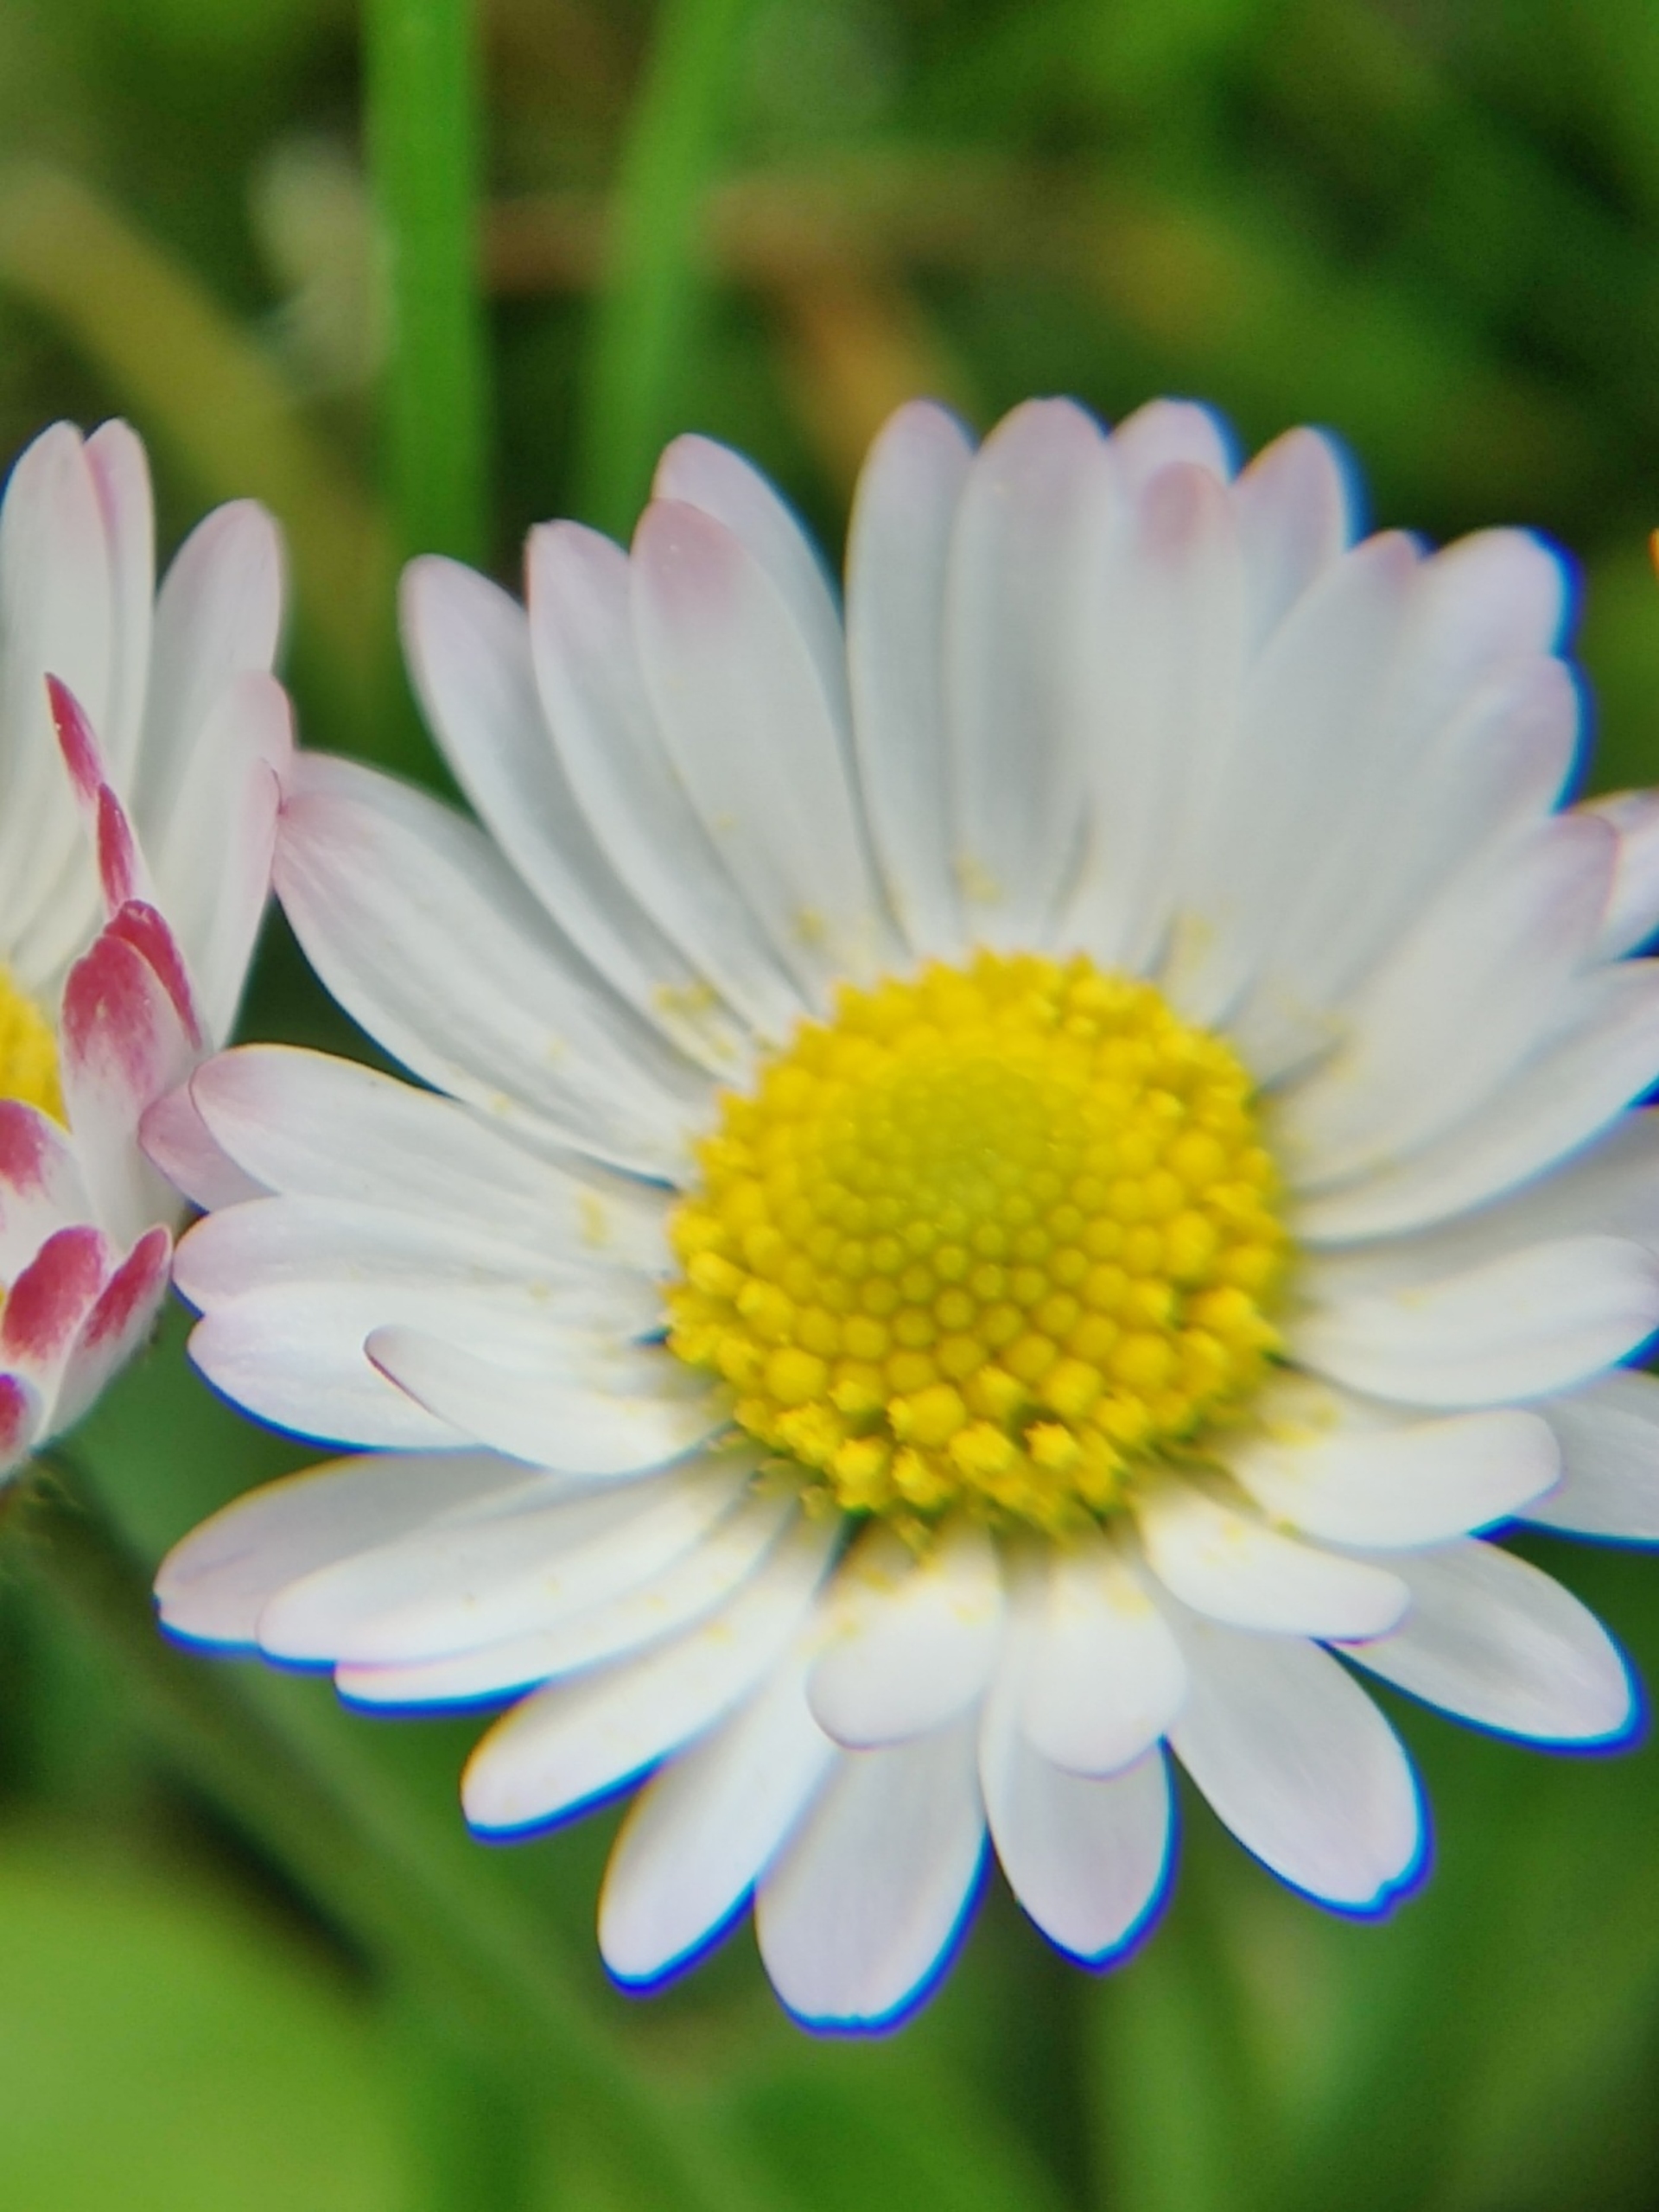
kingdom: Plantae
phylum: Tracheophyta
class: Magnoliopsida
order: Asterales
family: Asteraceae
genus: Bellis
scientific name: Bellis perennis
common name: Tusindfryd
